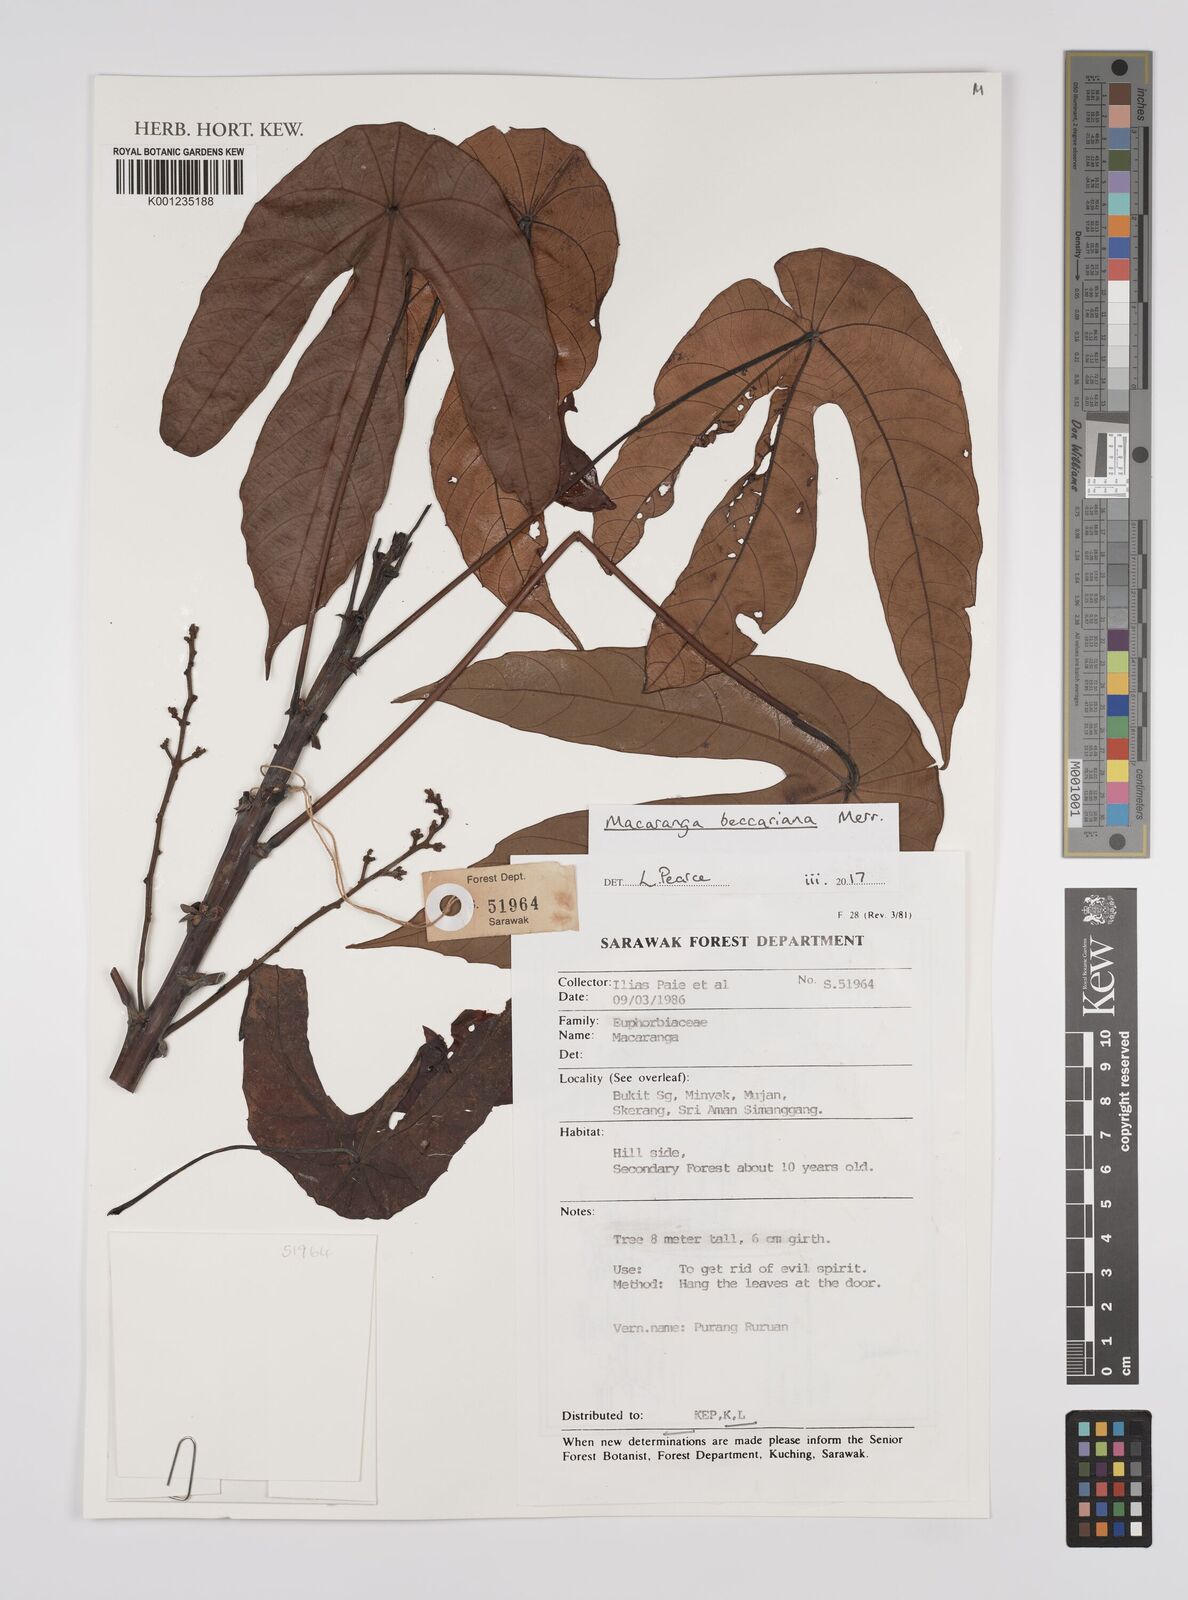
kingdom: Plantae
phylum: Tracheophyta
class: Magnoliopsida
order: Malpighiales
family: Euphorbiaceae
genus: Macaranga
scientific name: Macaranga beccariana
